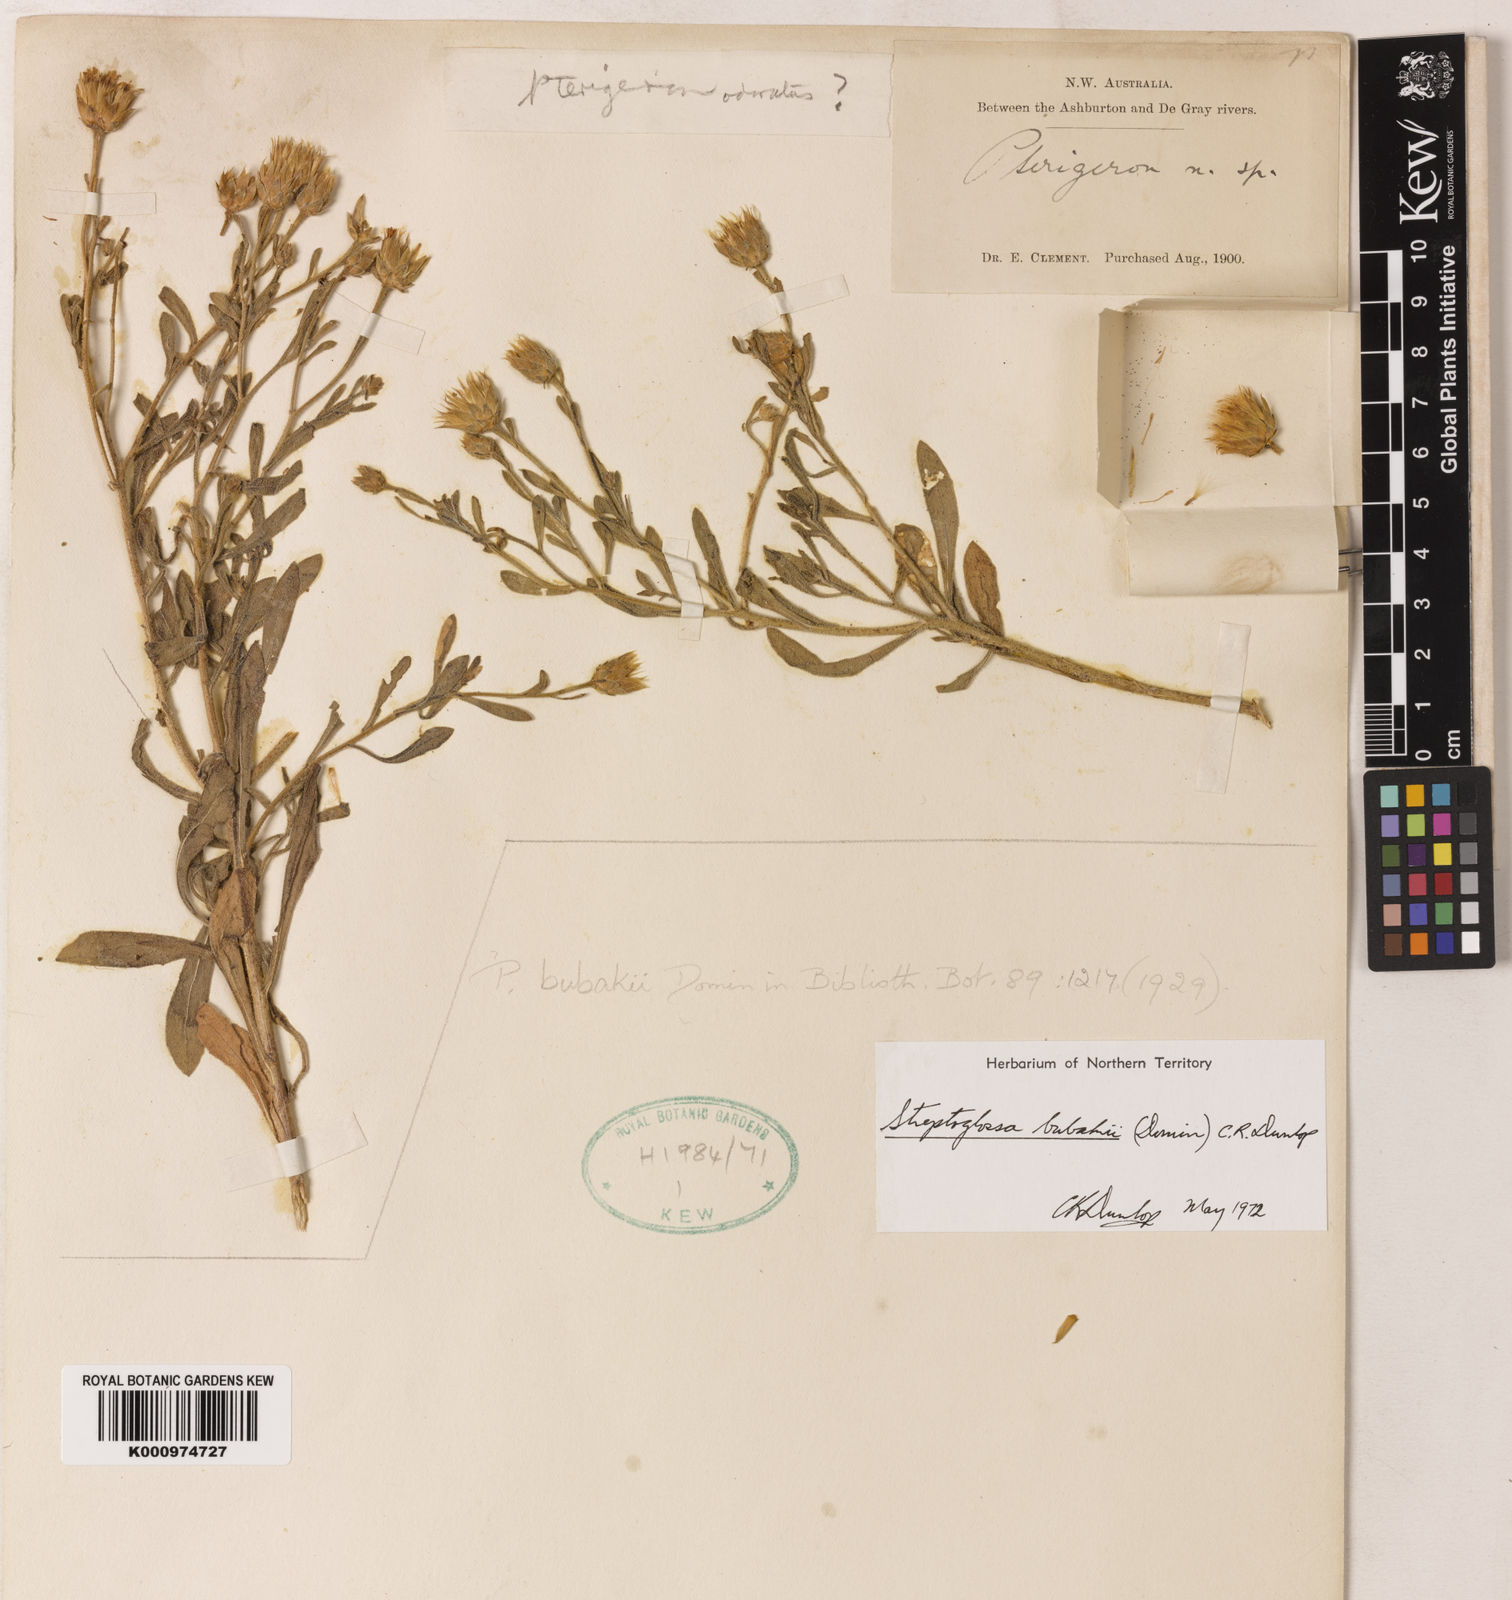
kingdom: Plantae
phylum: Tracheophyta
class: Magnoliopsida
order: Asterales
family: Asteraceae
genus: Streptoglossa
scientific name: Streptoglossa bubakii
